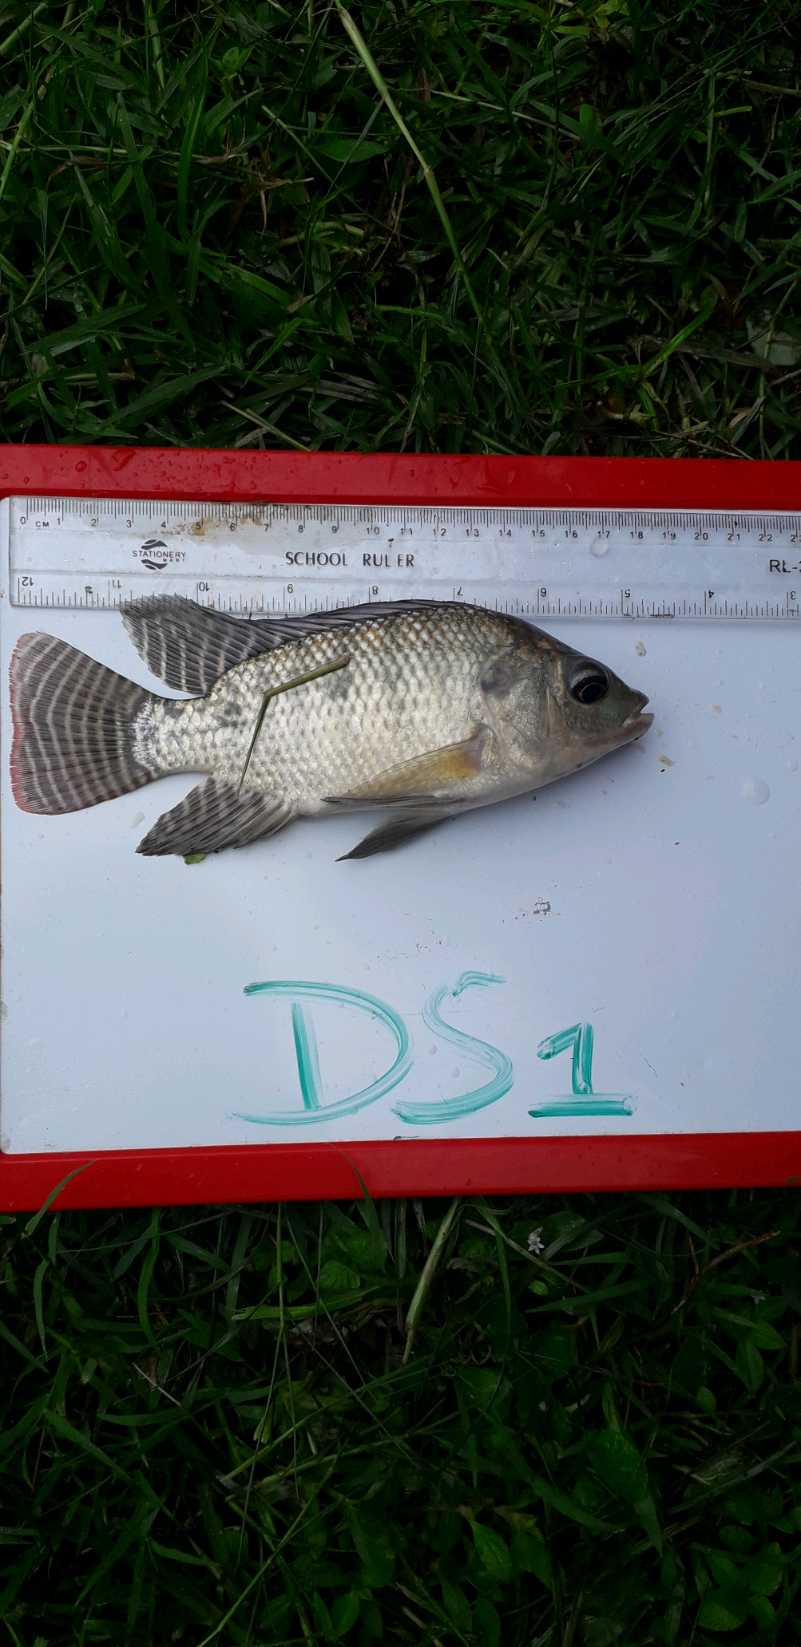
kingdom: Animalia
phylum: Chordata
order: Perciformes
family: Cichlidae
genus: Oreochromis
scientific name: Oreochromis niloticus
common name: Nile tilapia
